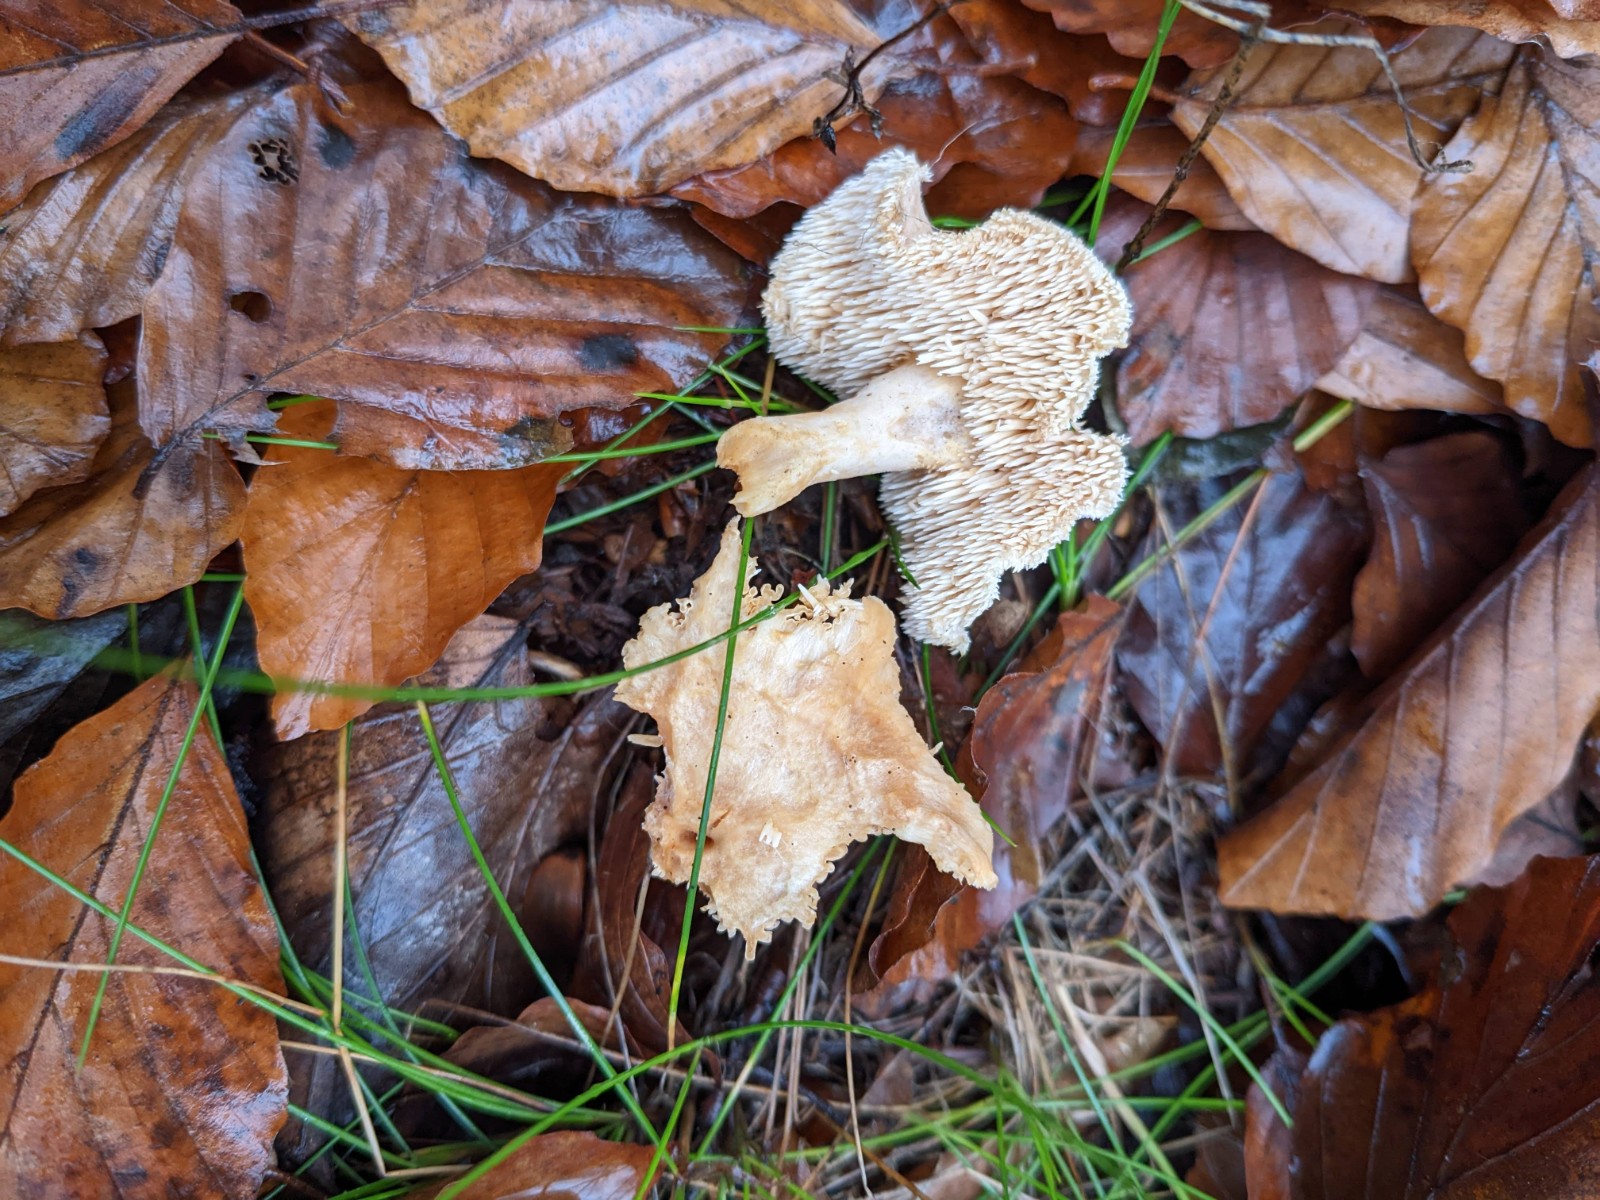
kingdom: Fungi
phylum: Basidiomycota
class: Agaricomycetes
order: Cantharellales
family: Hydnaceae
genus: Hydnum
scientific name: Hydnum umbilicatum
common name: navle-pigsvamp
